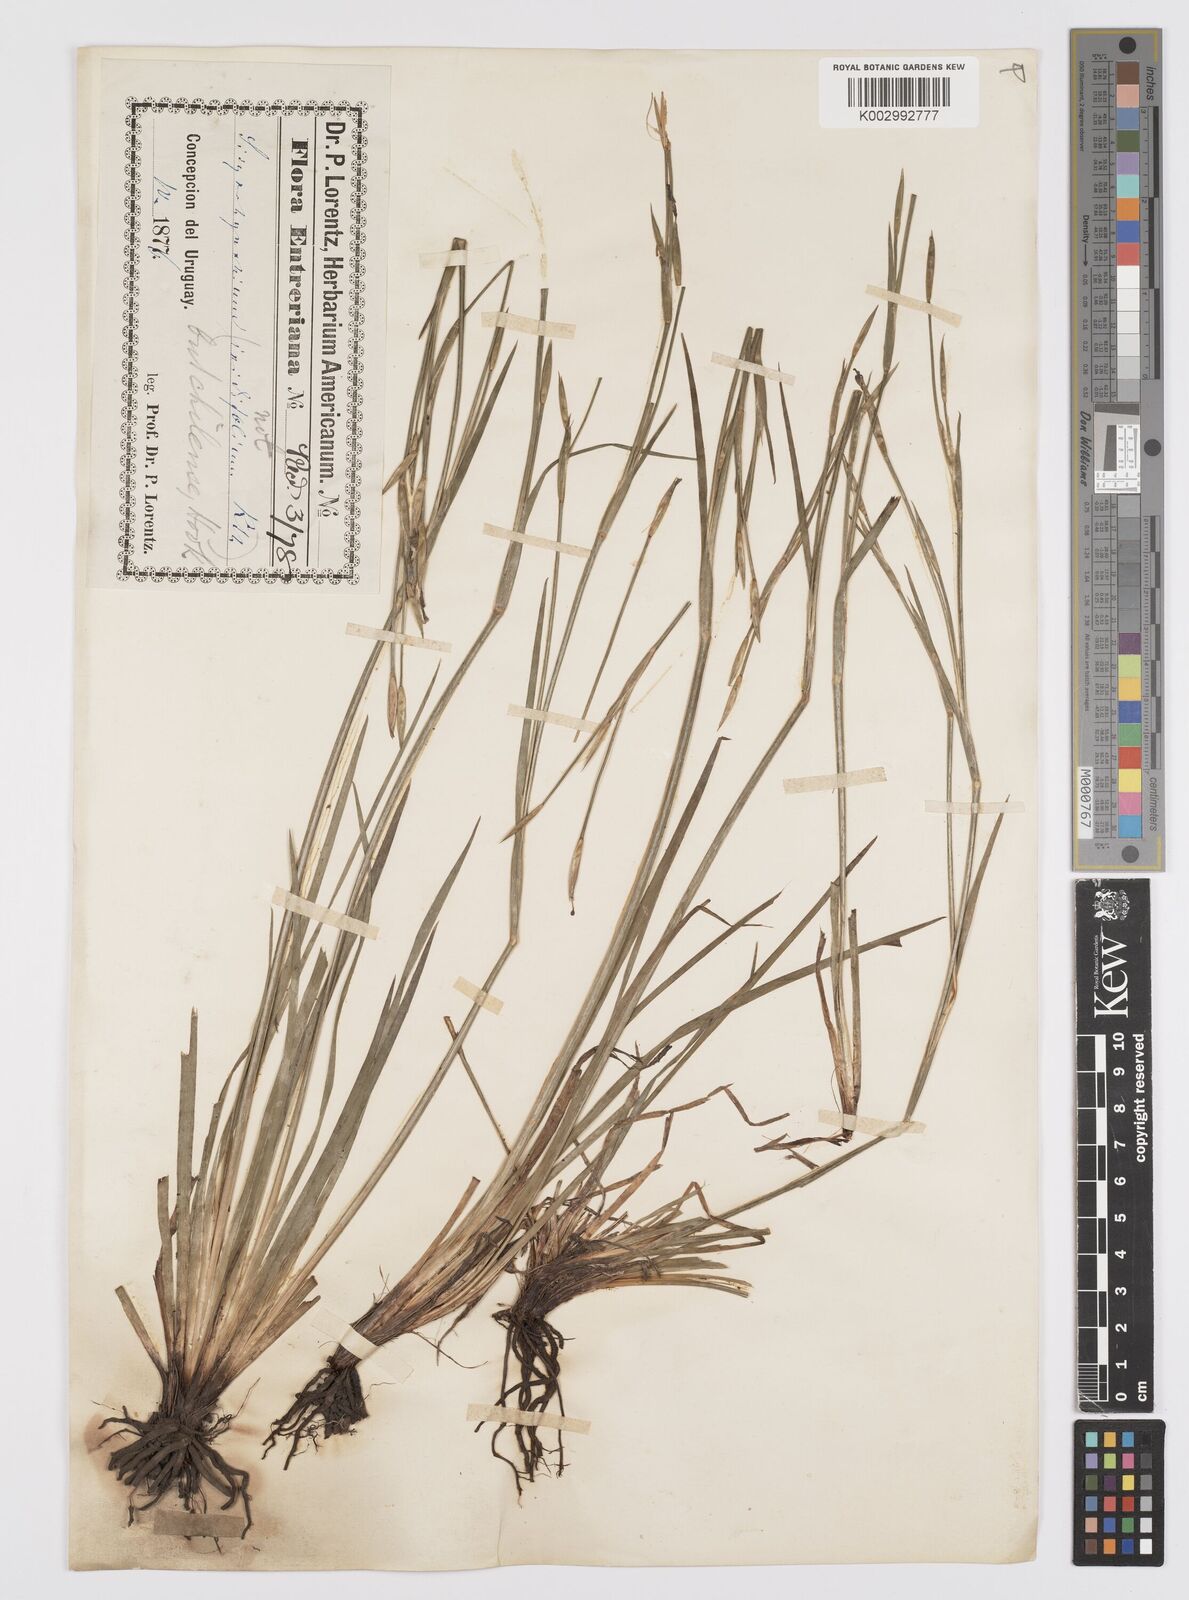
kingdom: Plantae
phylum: Tracheophyta
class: Liliopsida
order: Asparagales
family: Iridaceae
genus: Sisyrinchium
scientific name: Sisyrinchium chilense
